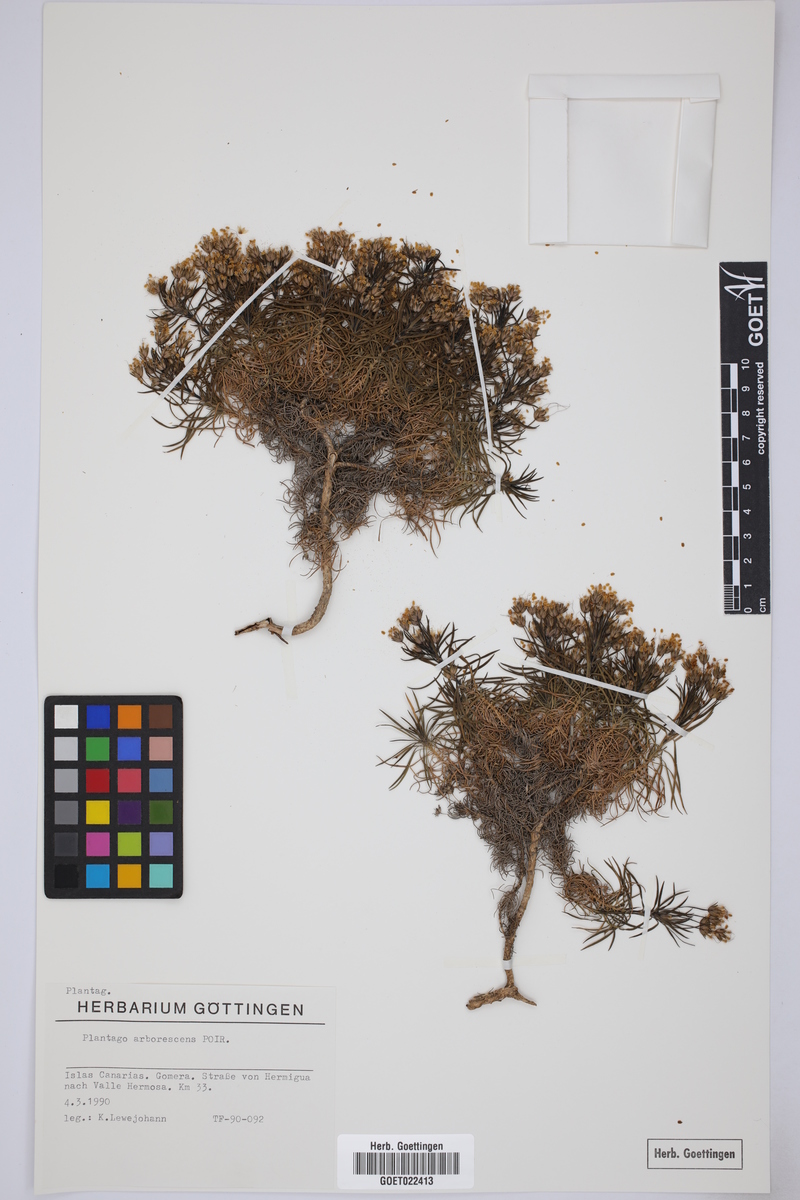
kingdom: Plantae
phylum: Tracheophyta
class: Magnoliopsida
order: Lamiales
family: Plantaginaceae
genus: Plantago
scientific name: Plantago arborescens
